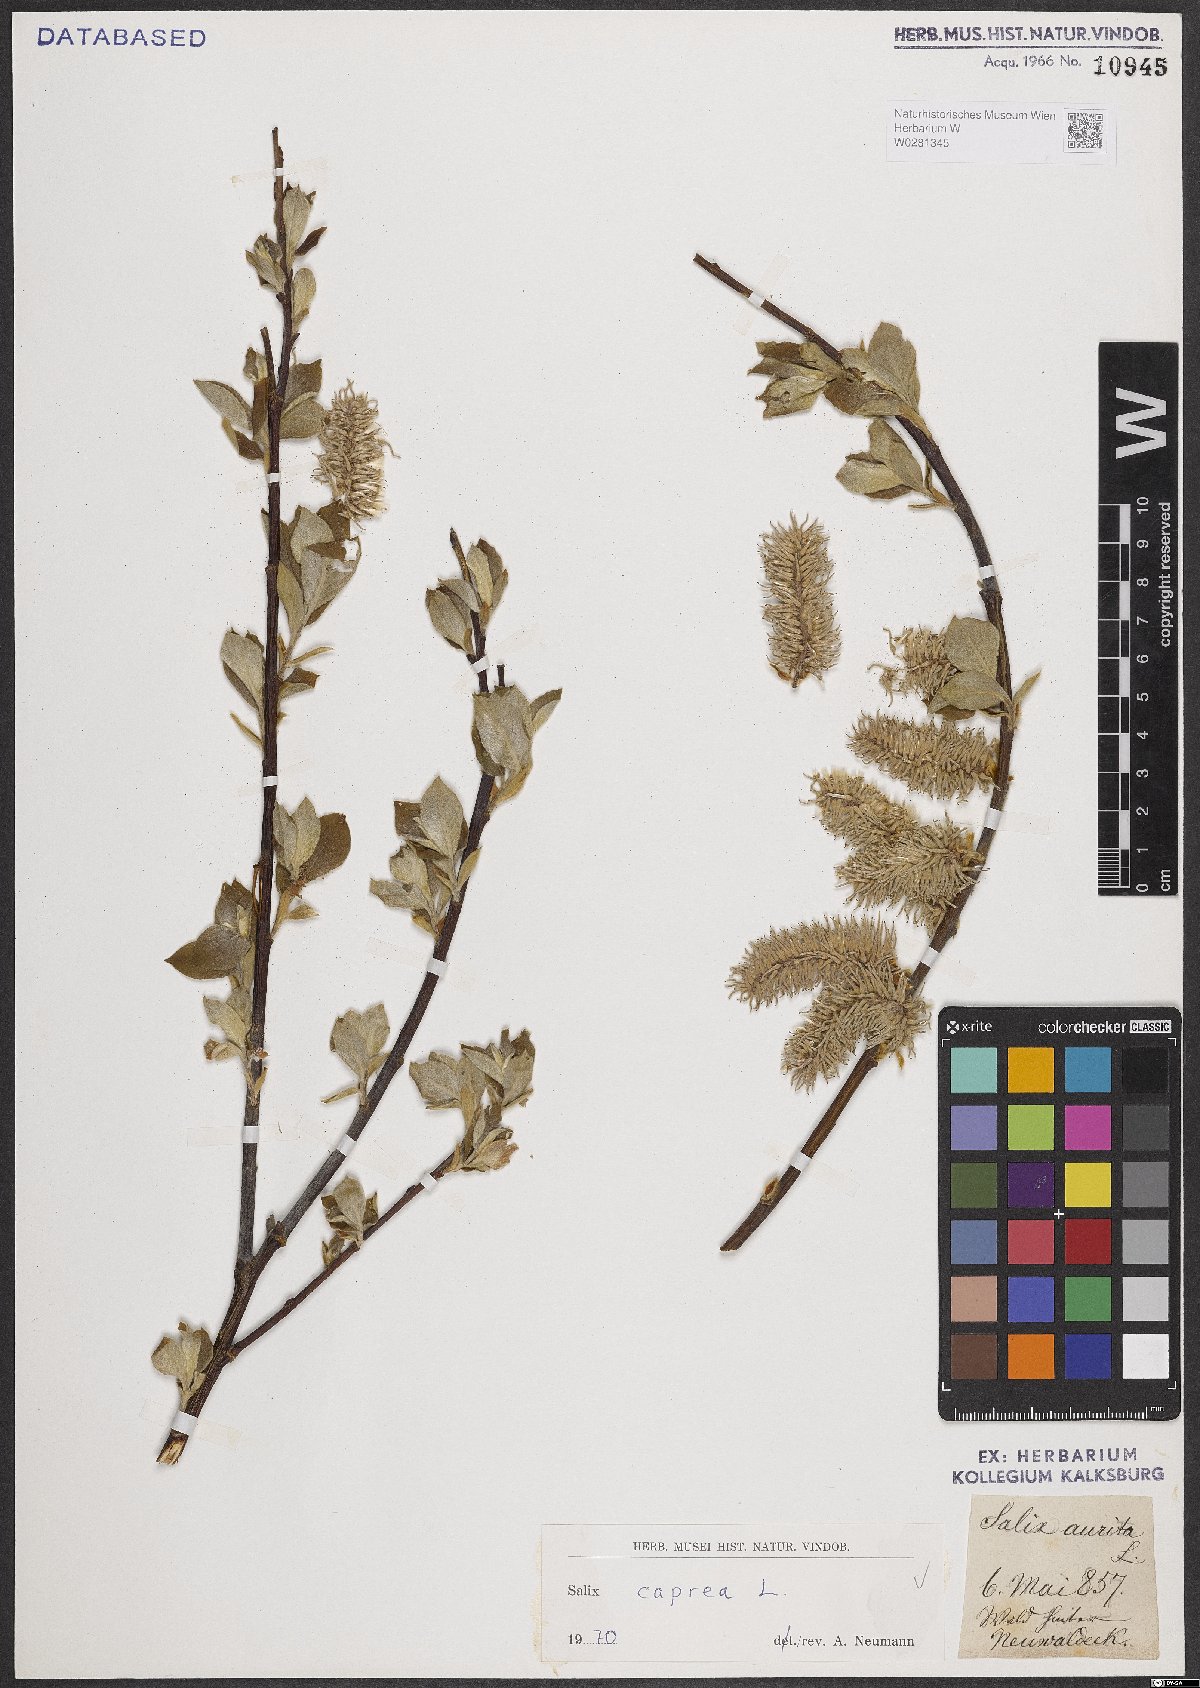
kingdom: Plantae
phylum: Tracheophyta
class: Magnoliopsida
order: Malpighiales
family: Salicaceae
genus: Salix
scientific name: Salix caprea
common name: Goat willow
